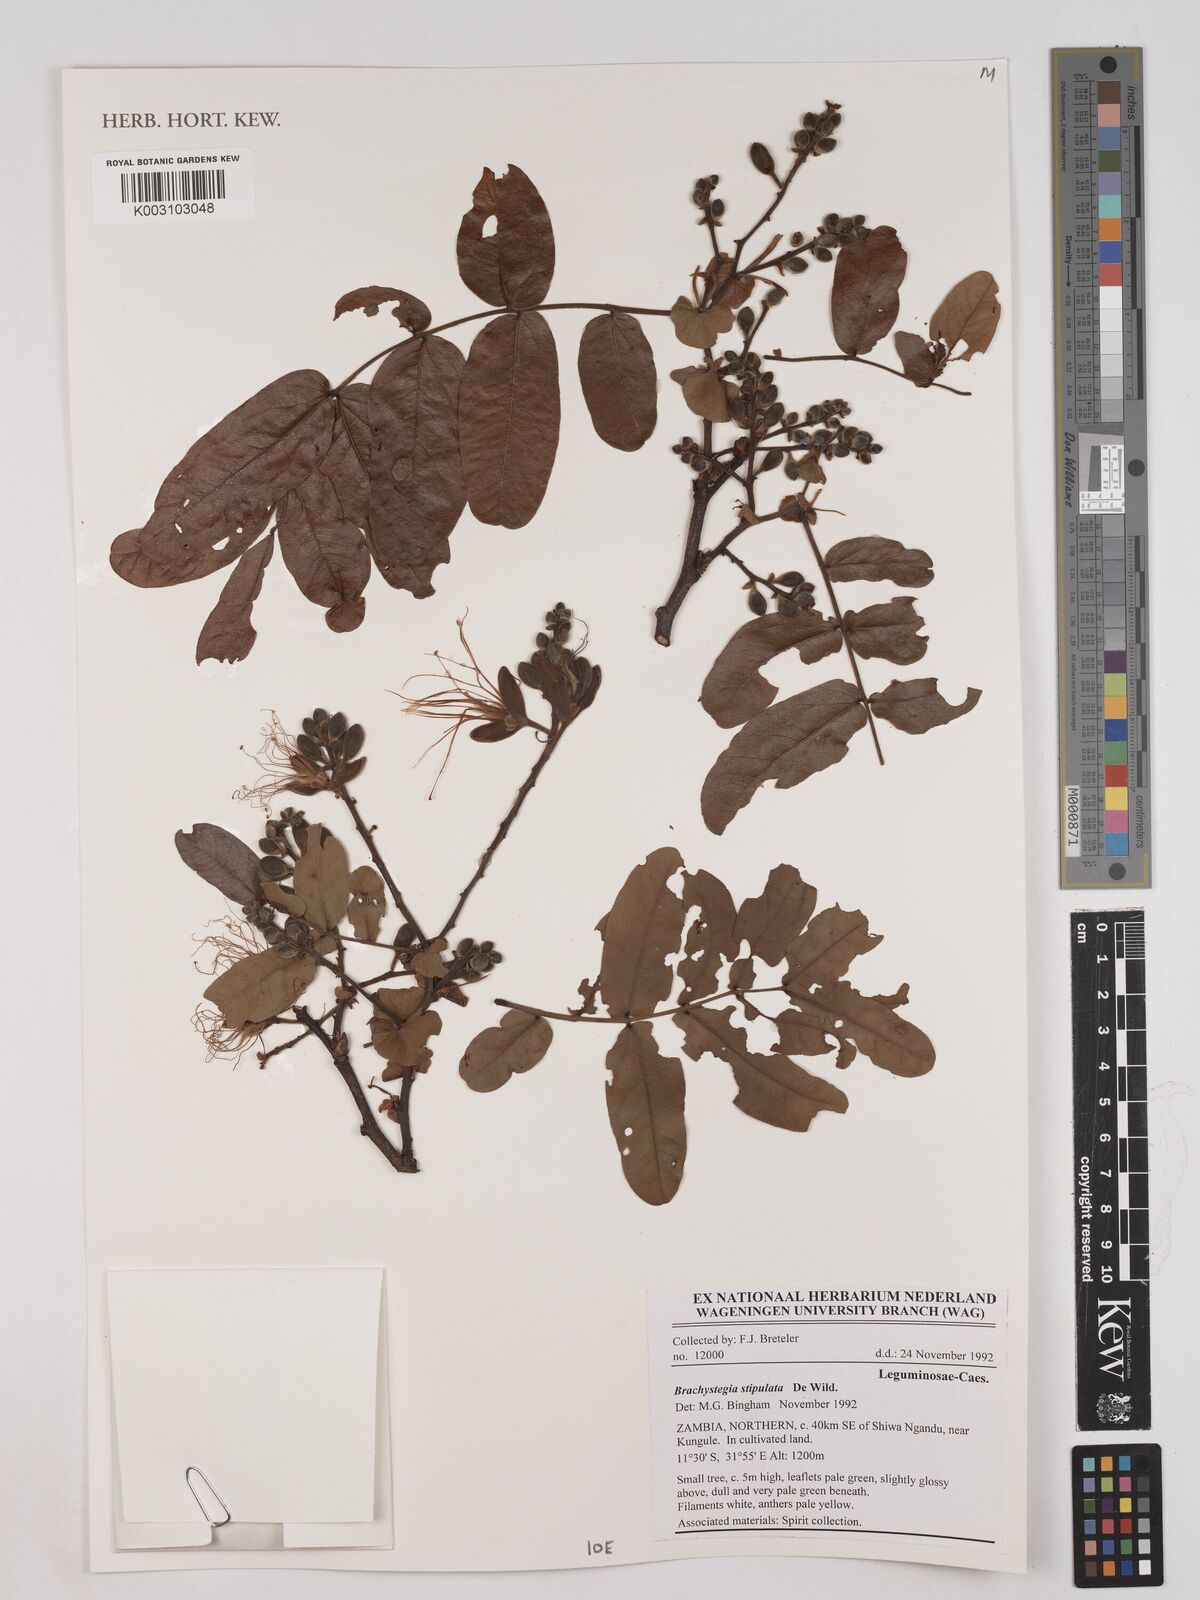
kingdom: Plantae
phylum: Tracheophyta
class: Magnoliopsida
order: Fabales
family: Fabaceae
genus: Brachystegia
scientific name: Brachystegia stipulata
